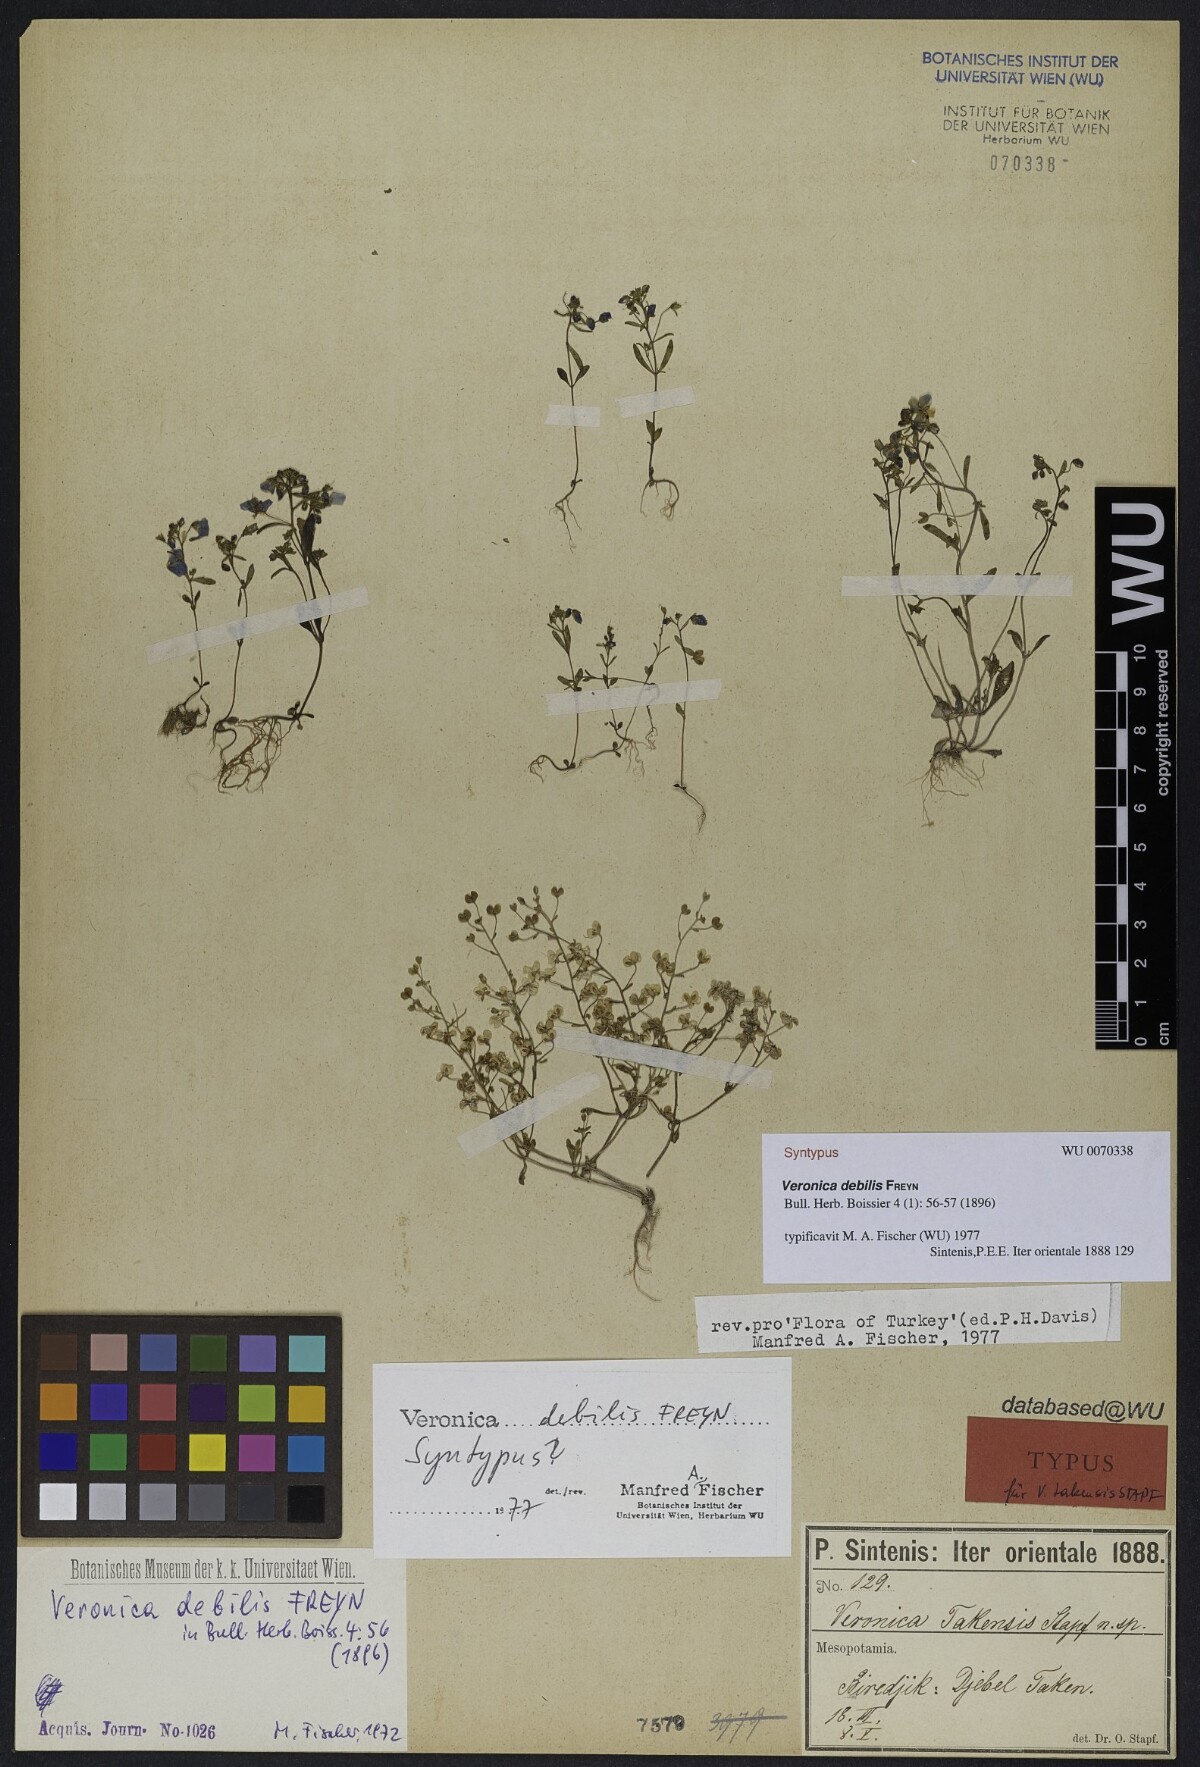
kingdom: Plantae
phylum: Tracheophyta
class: Magnoliopsida
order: Lamiales
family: Plantaginaceae
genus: Veronica
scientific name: Veronica debilis
